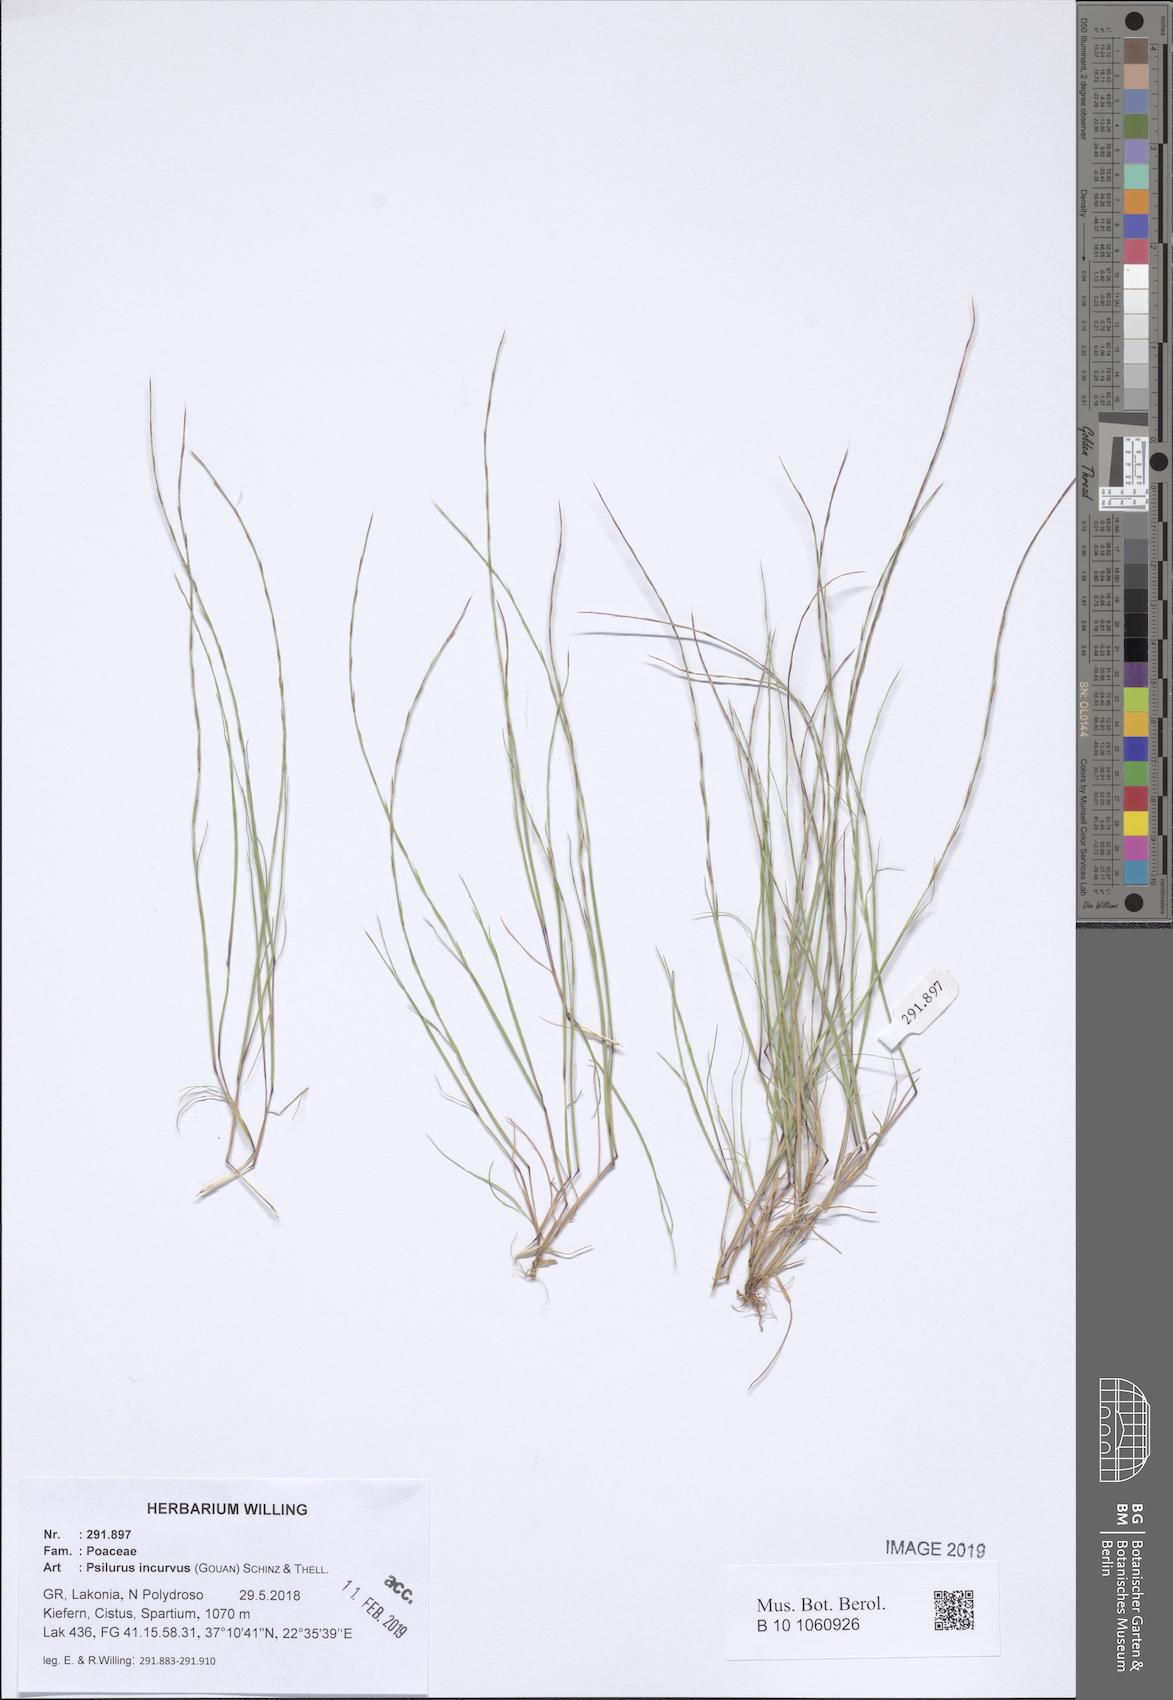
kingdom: Plantae
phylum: Tracheophyta
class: Liliopsida
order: Poales
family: Poaceae
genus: Festuca
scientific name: Festuca incurva
